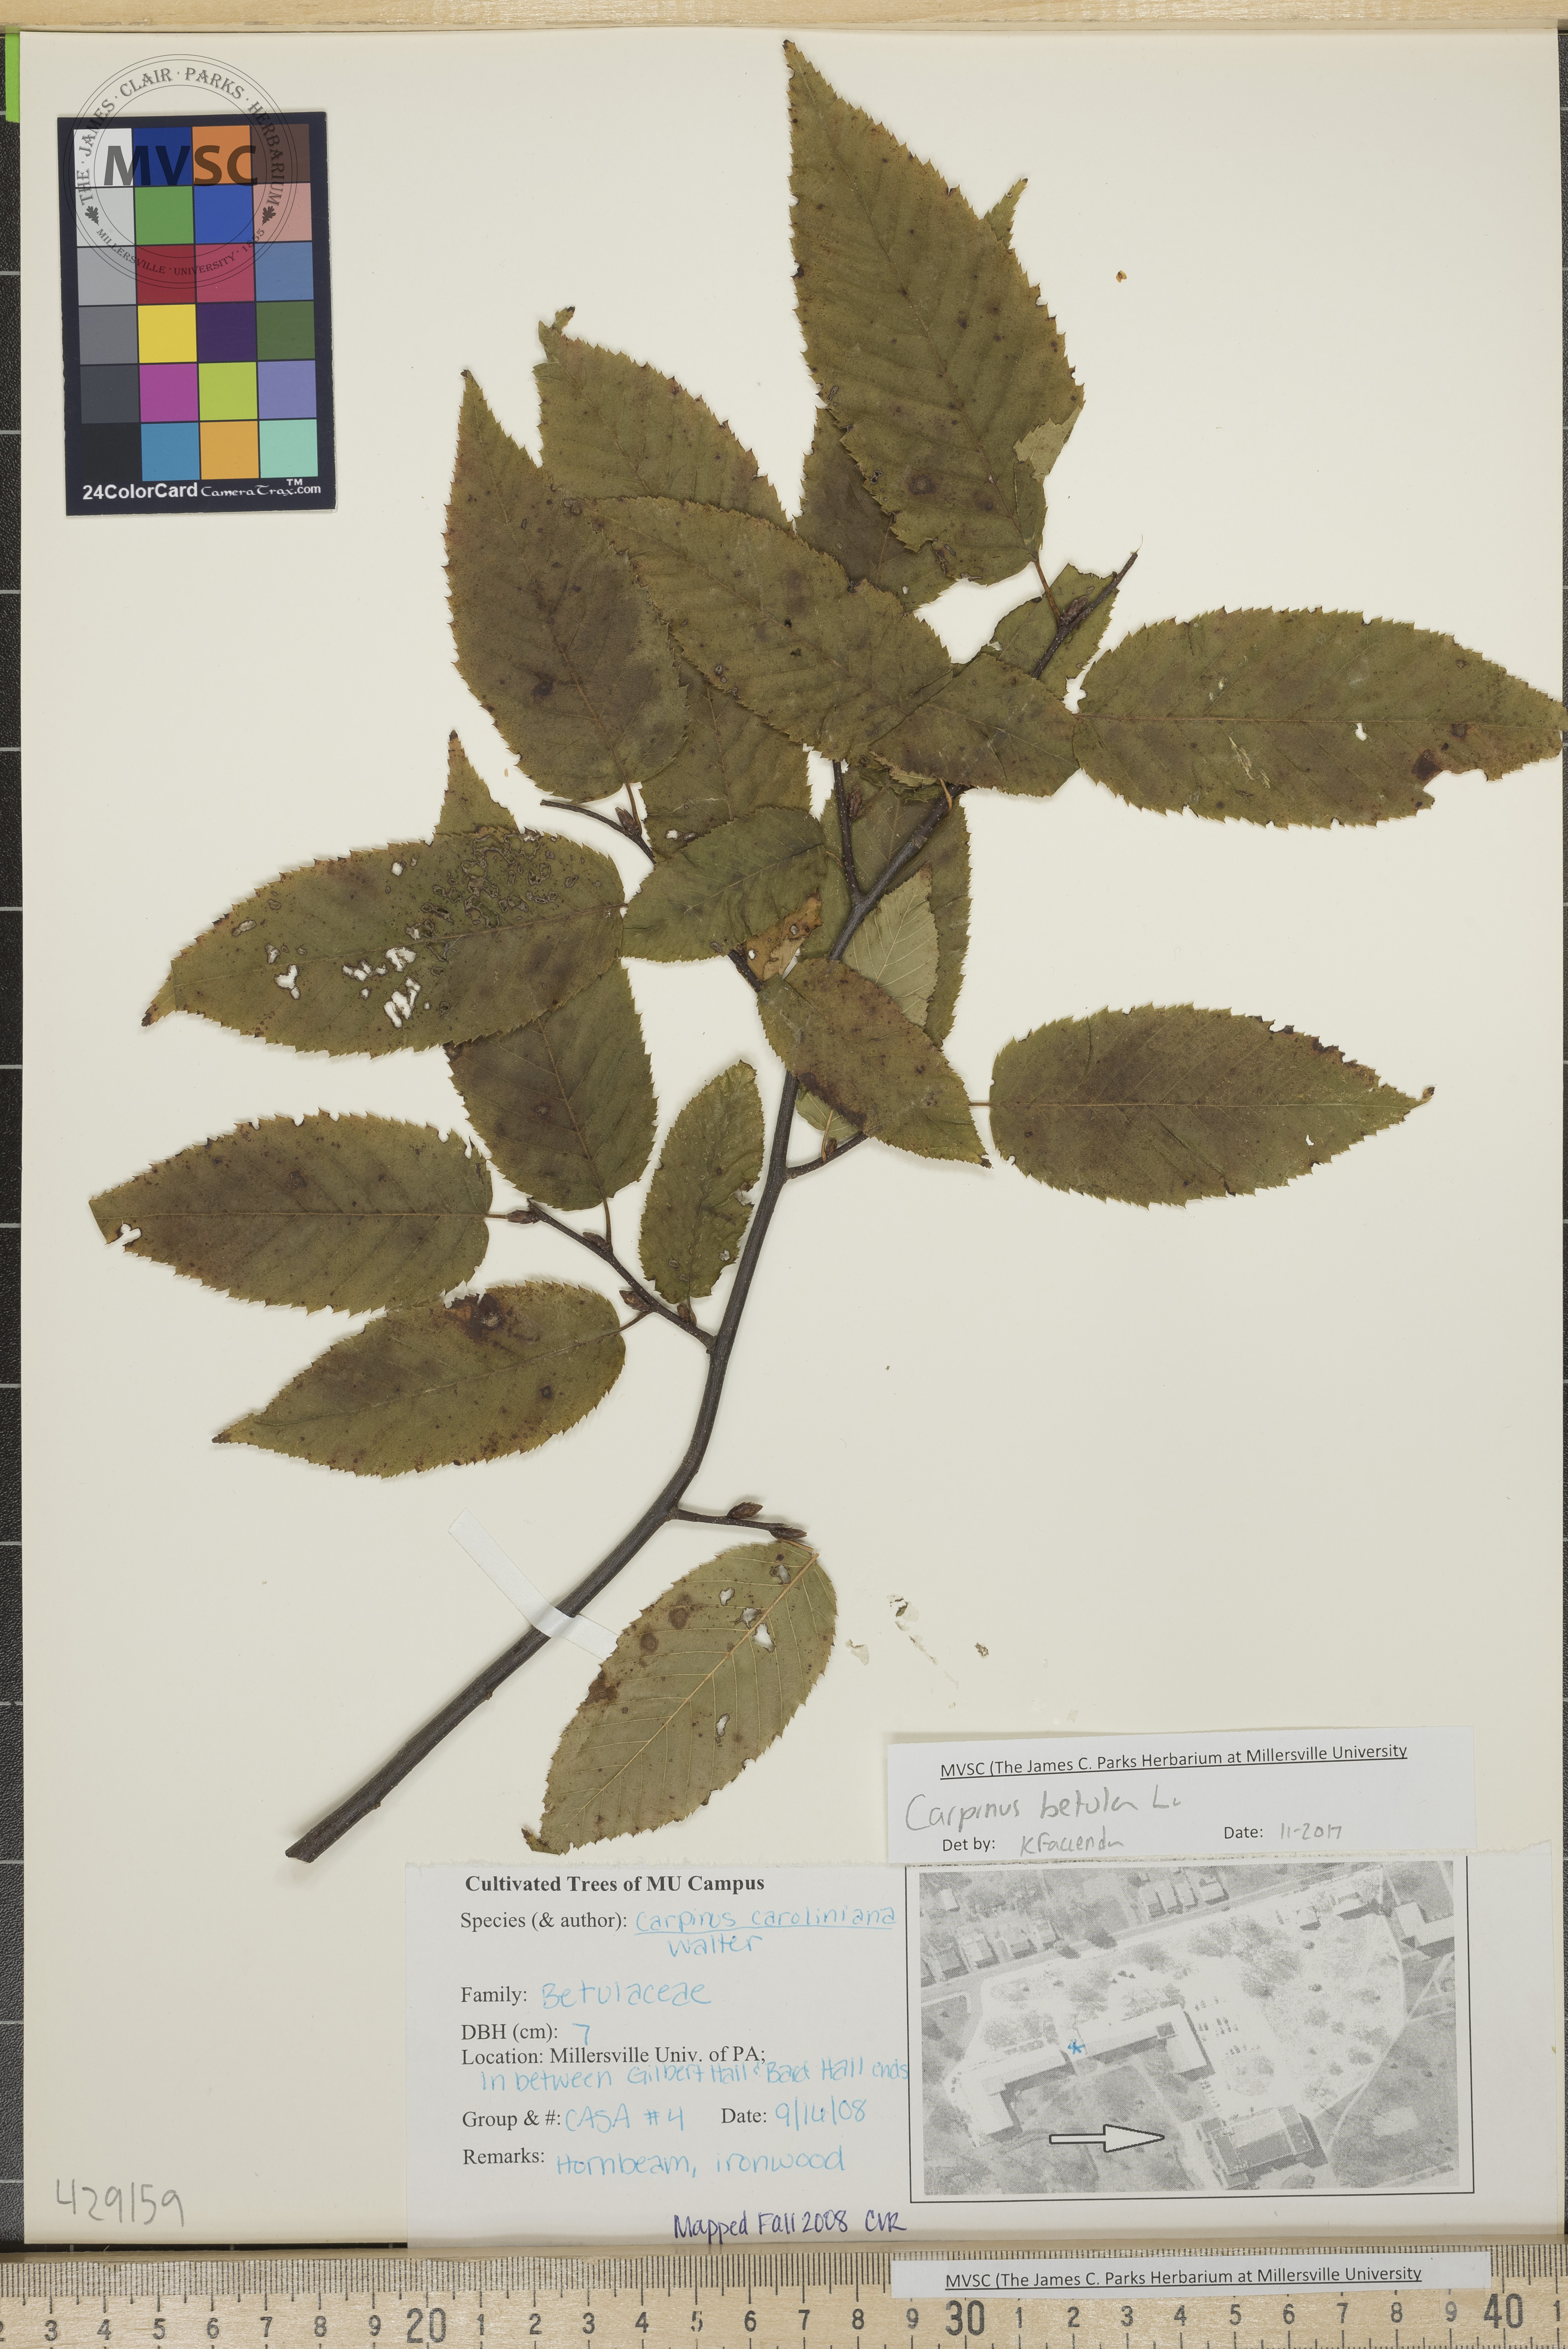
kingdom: Plantae
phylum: Tracheophyta
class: Magnoliopsida
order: Fagales
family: Betulaceae
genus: Carpinus
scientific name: Carpinus betulus
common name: Hornbeam
